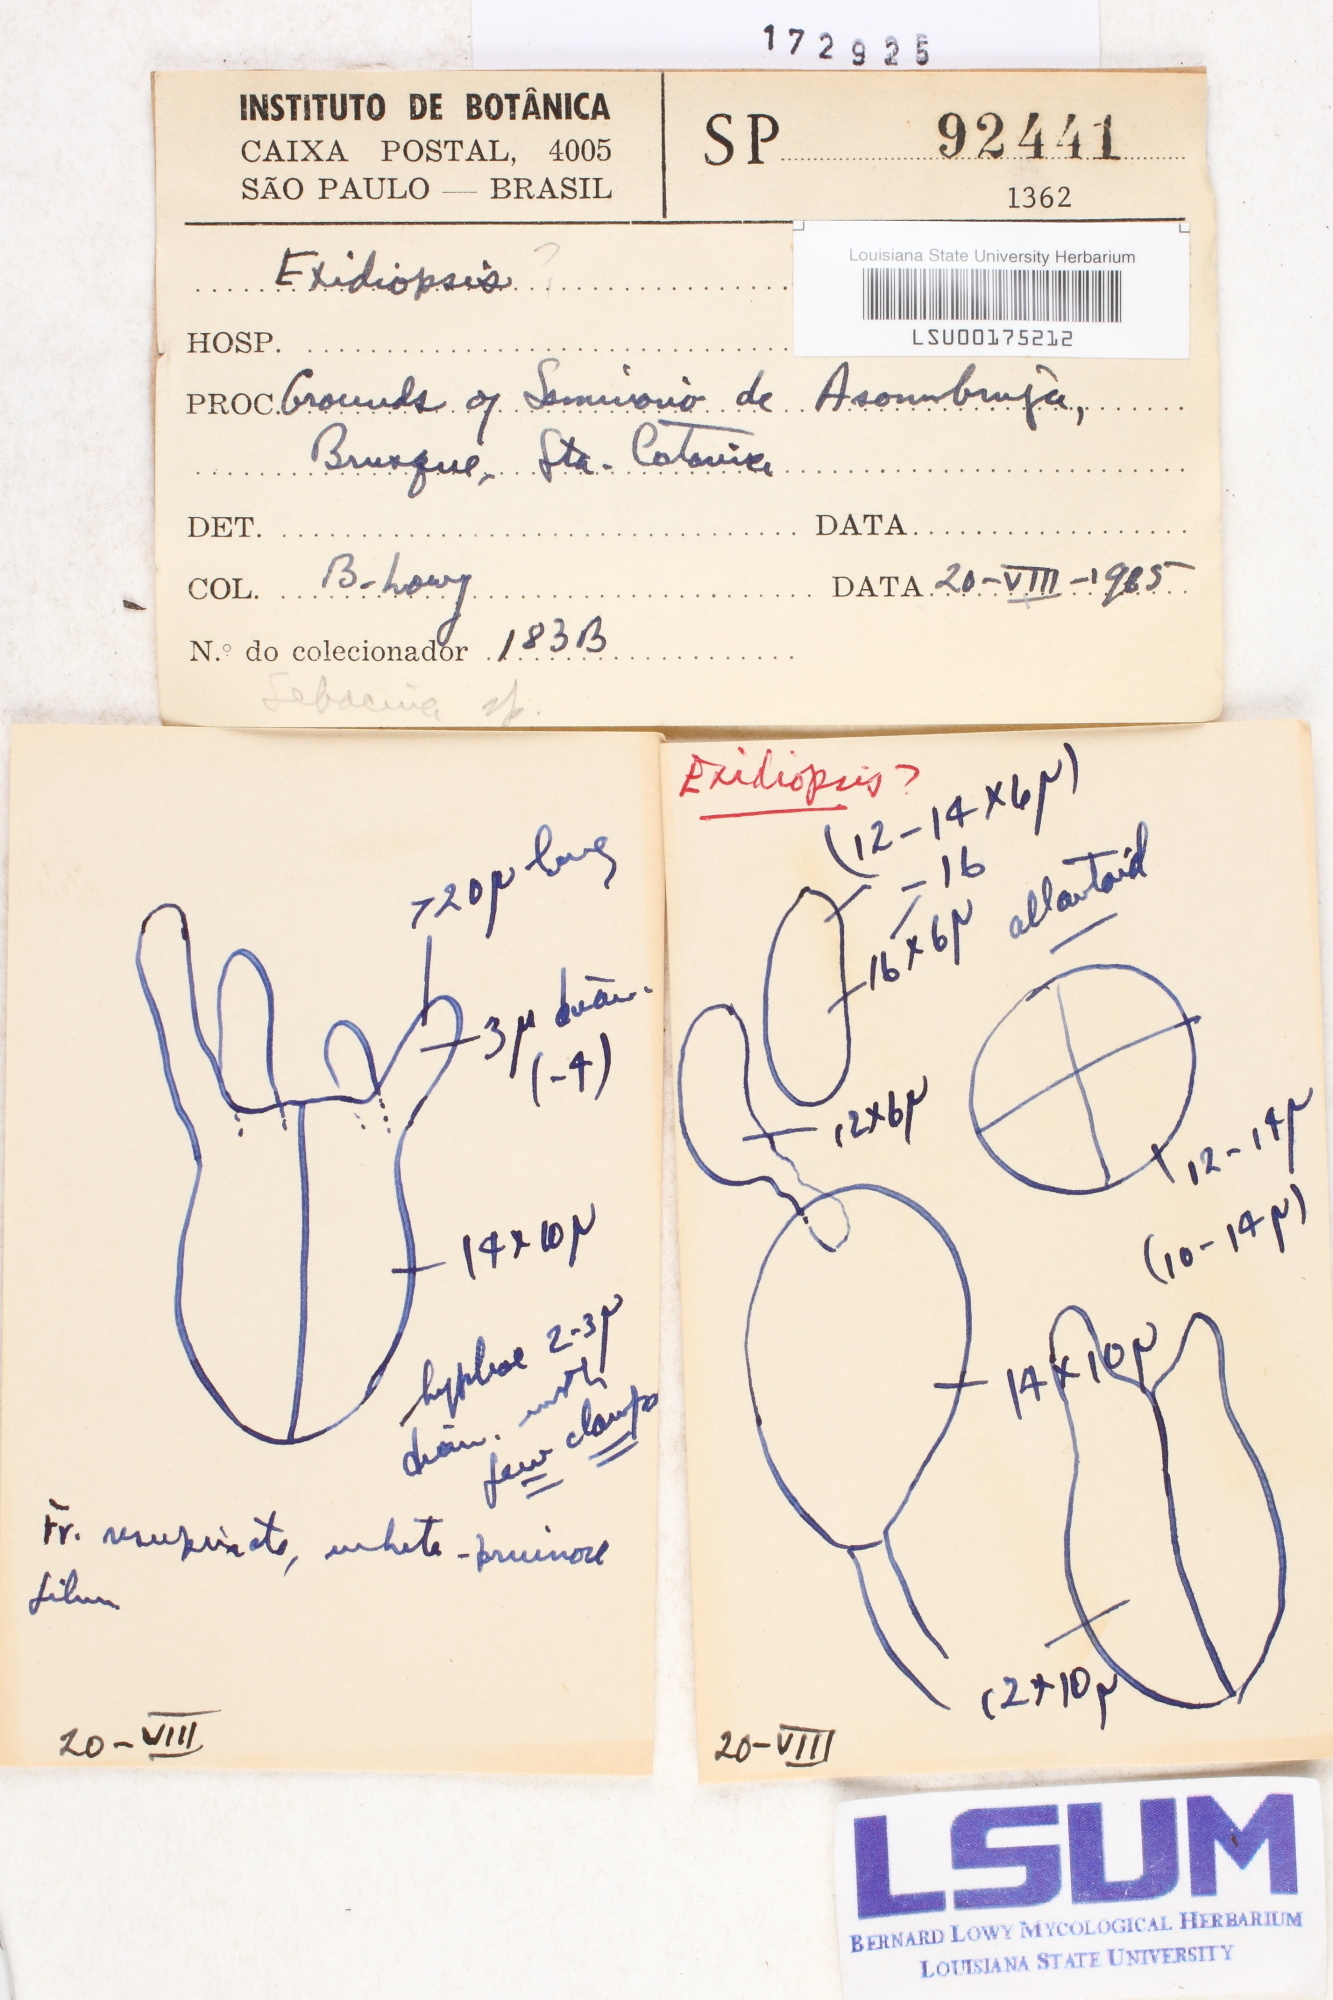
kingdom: Fungi
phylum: Basidiomycota
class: Agaricomycetes
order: Auriculariales
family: Auriculariaceae
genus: Exidiopsis
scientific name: Exidiopsis
